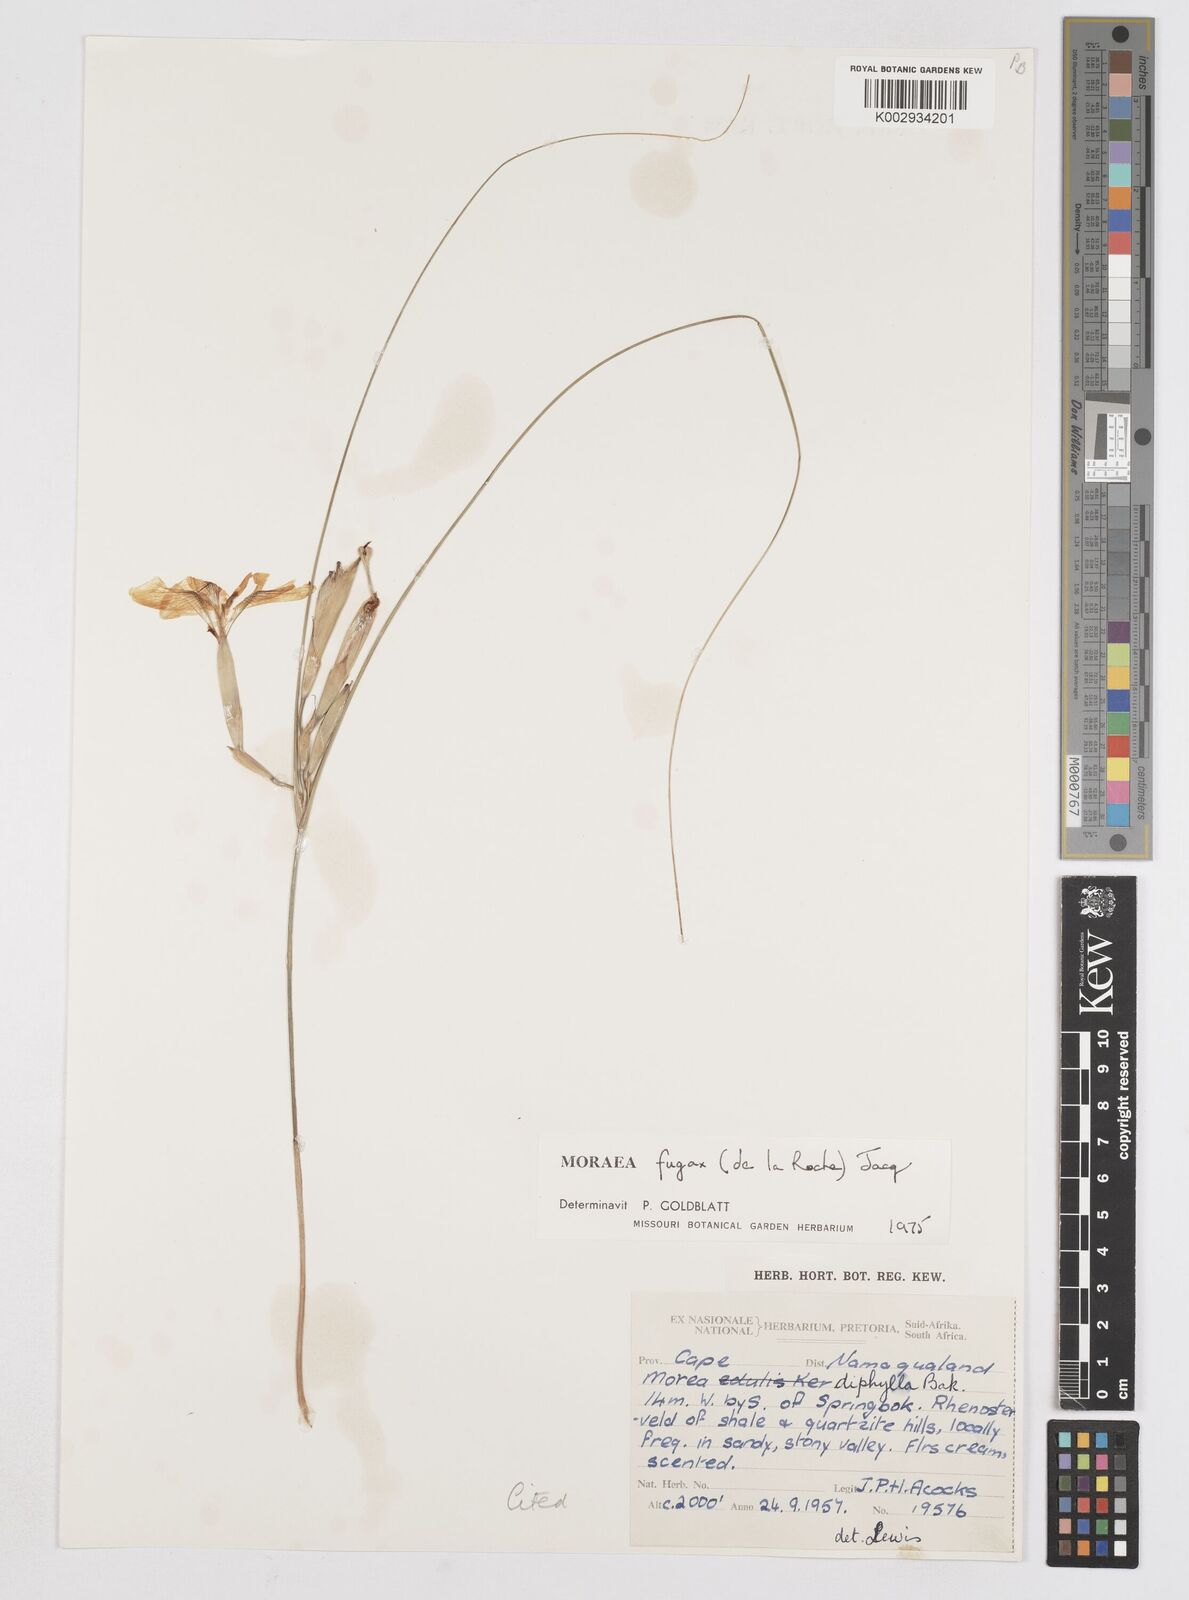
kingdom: Plantae
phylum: Tracheophyta
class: Liliopsida
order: Asparagales
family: Iridaceae
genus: Moraea
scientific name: Moraea fugax
